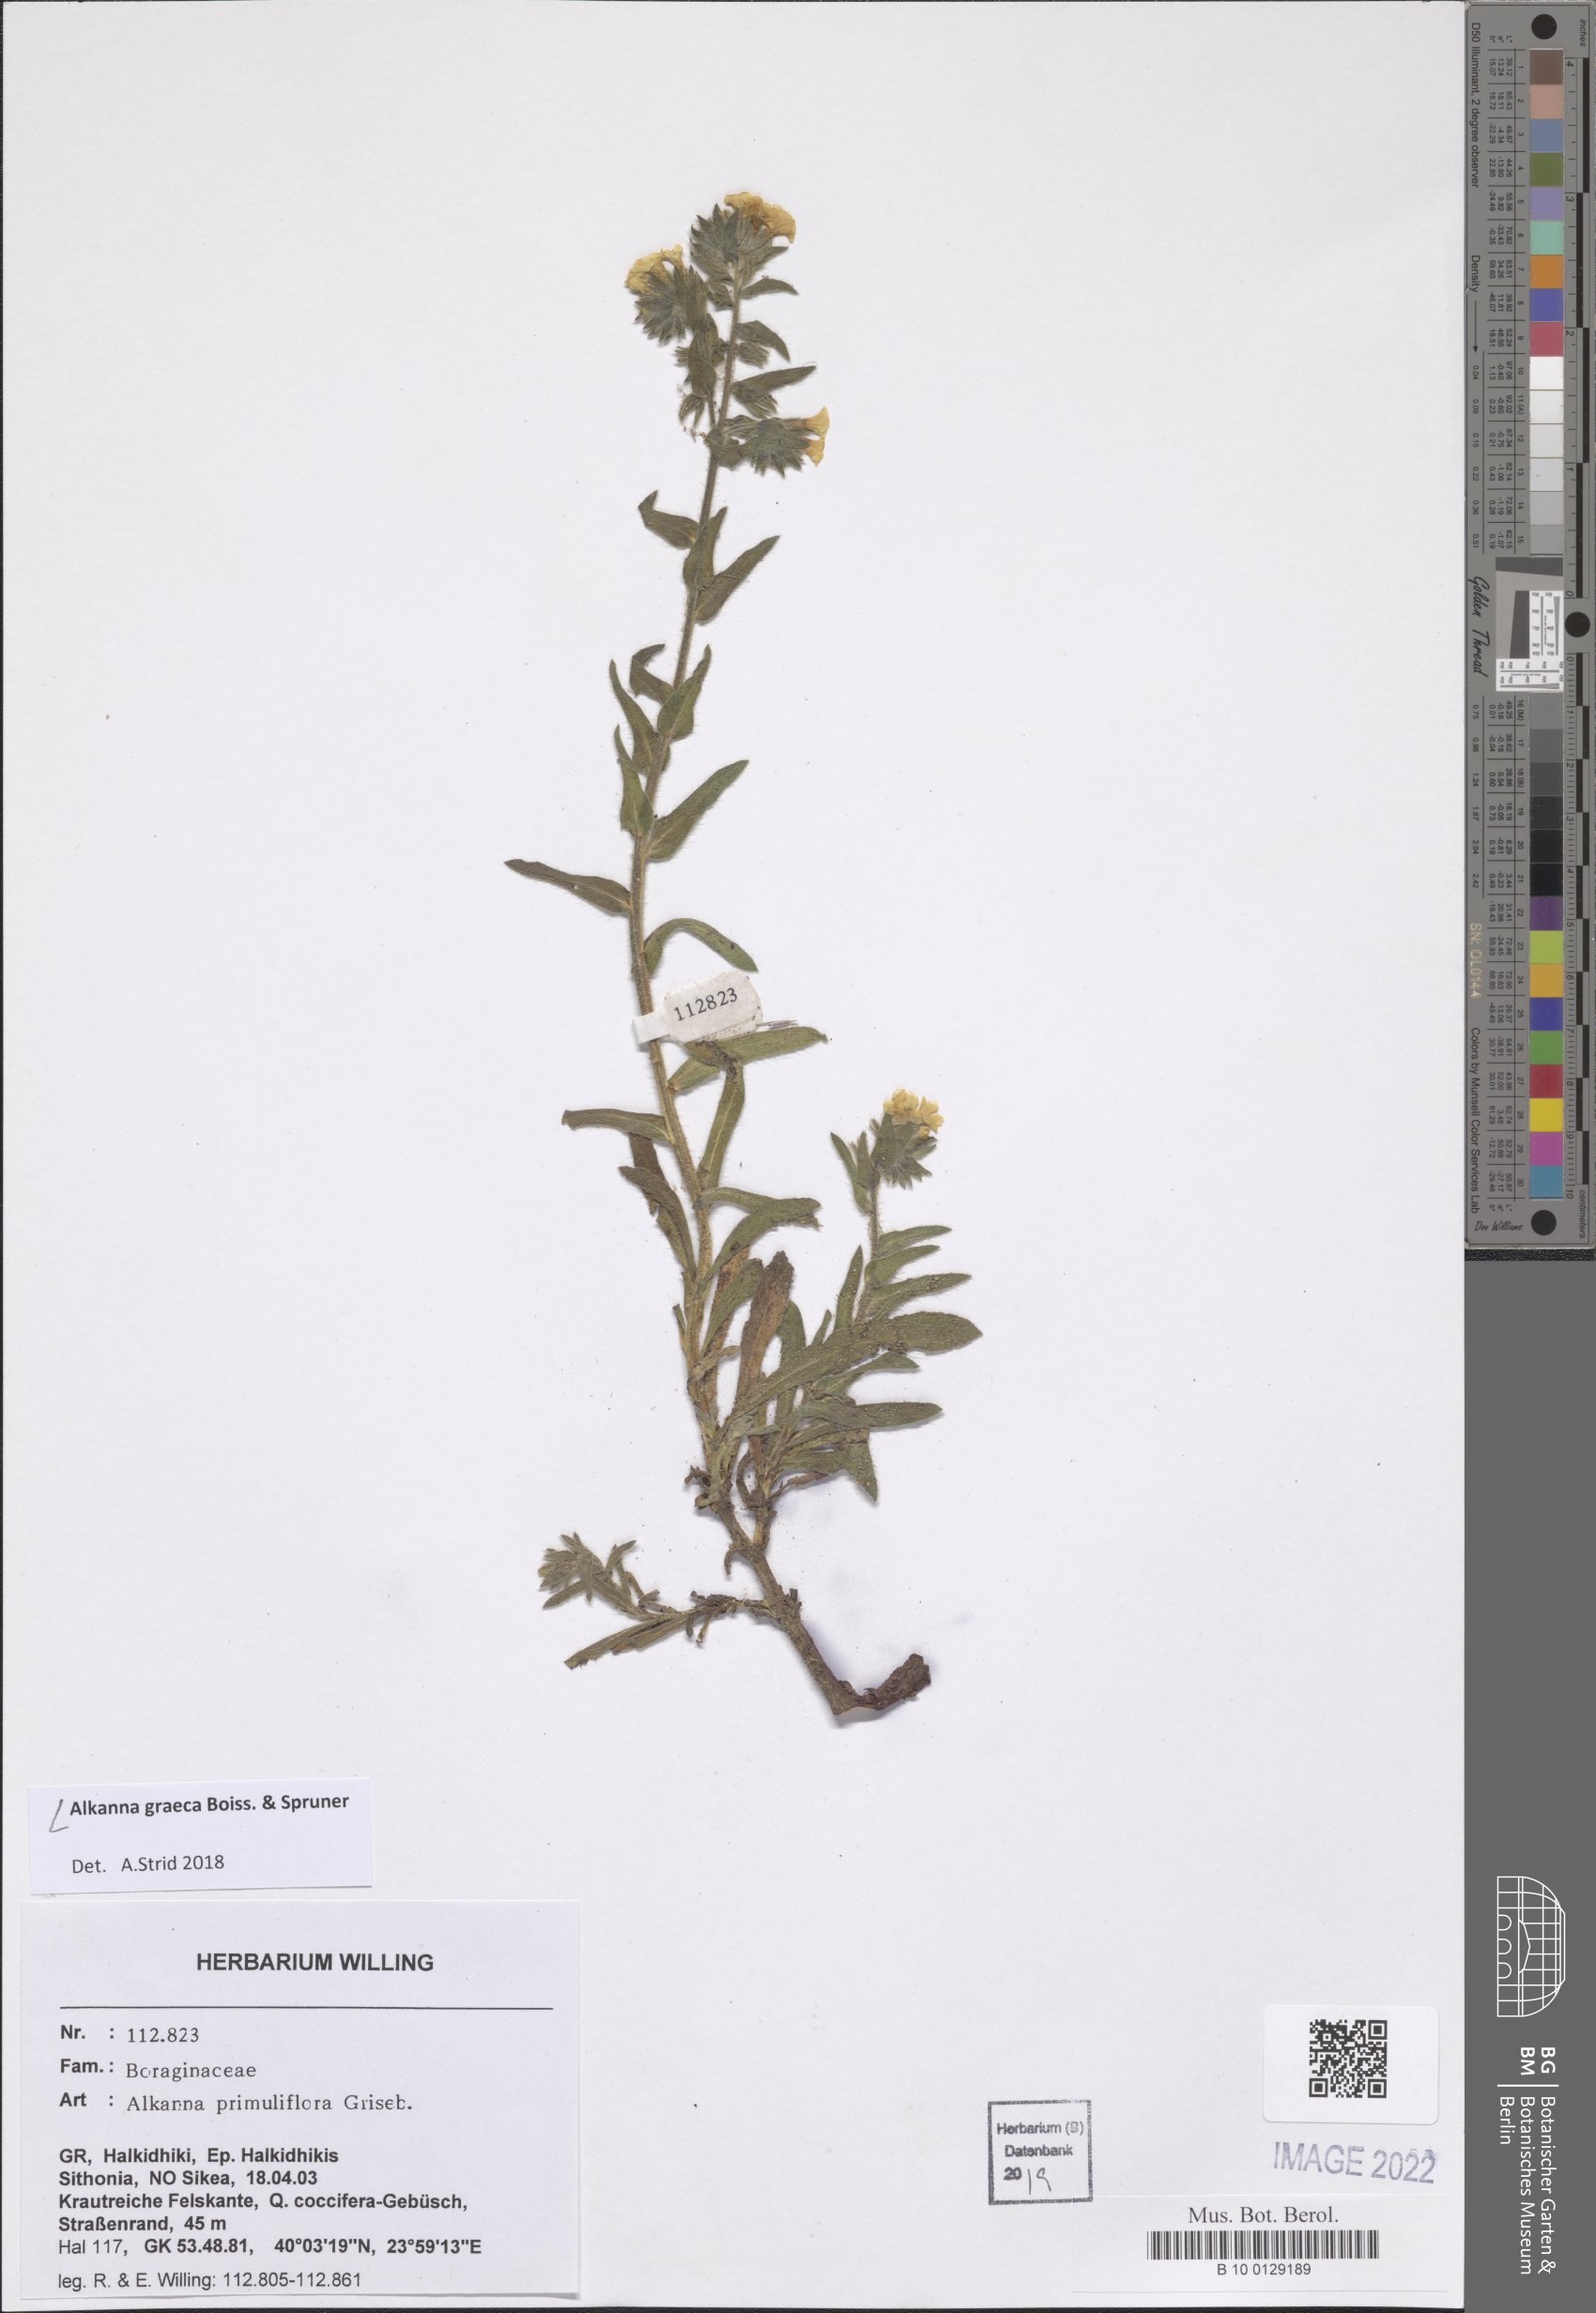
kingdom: Plantae
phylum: Tracheophyta
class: Magnoliopsida
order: Boraginales
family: Boraginaceae
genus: Alkanna
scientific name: Alkanna graeca
